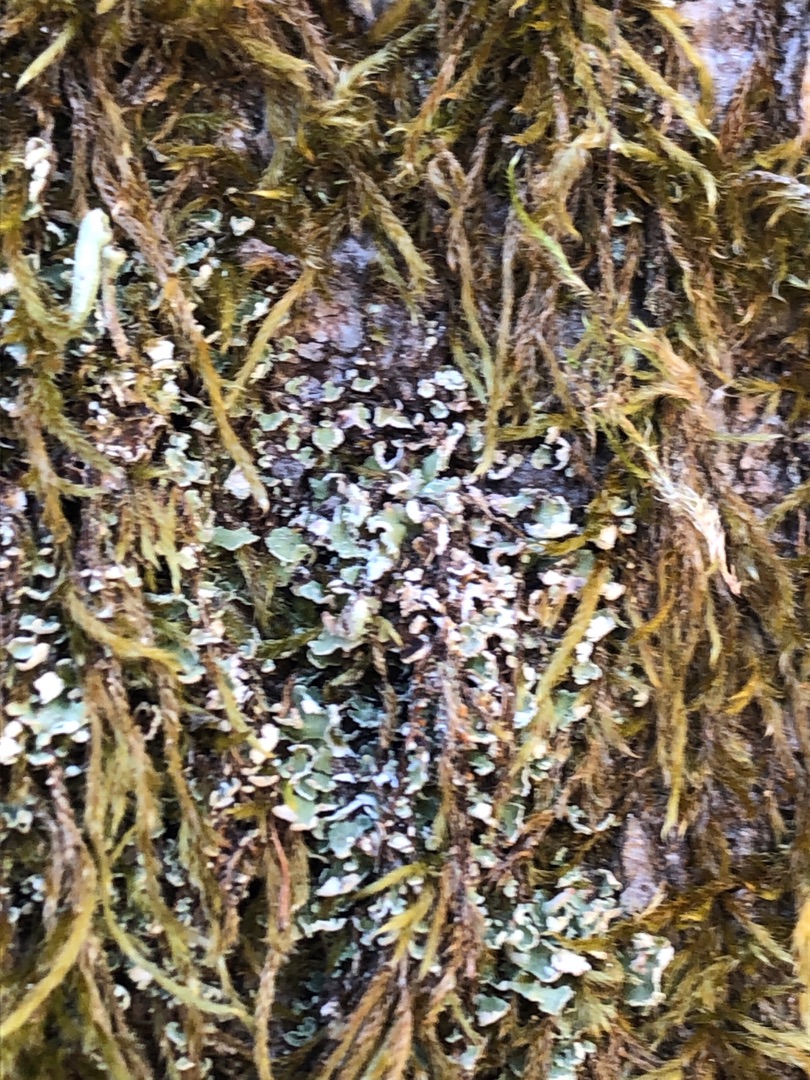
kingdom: Fungi
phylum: Ascomycota
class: Lecanoromycetes
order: Lecanorales
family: Cladoniaceae
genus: Cladonia
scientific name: Cladonia
